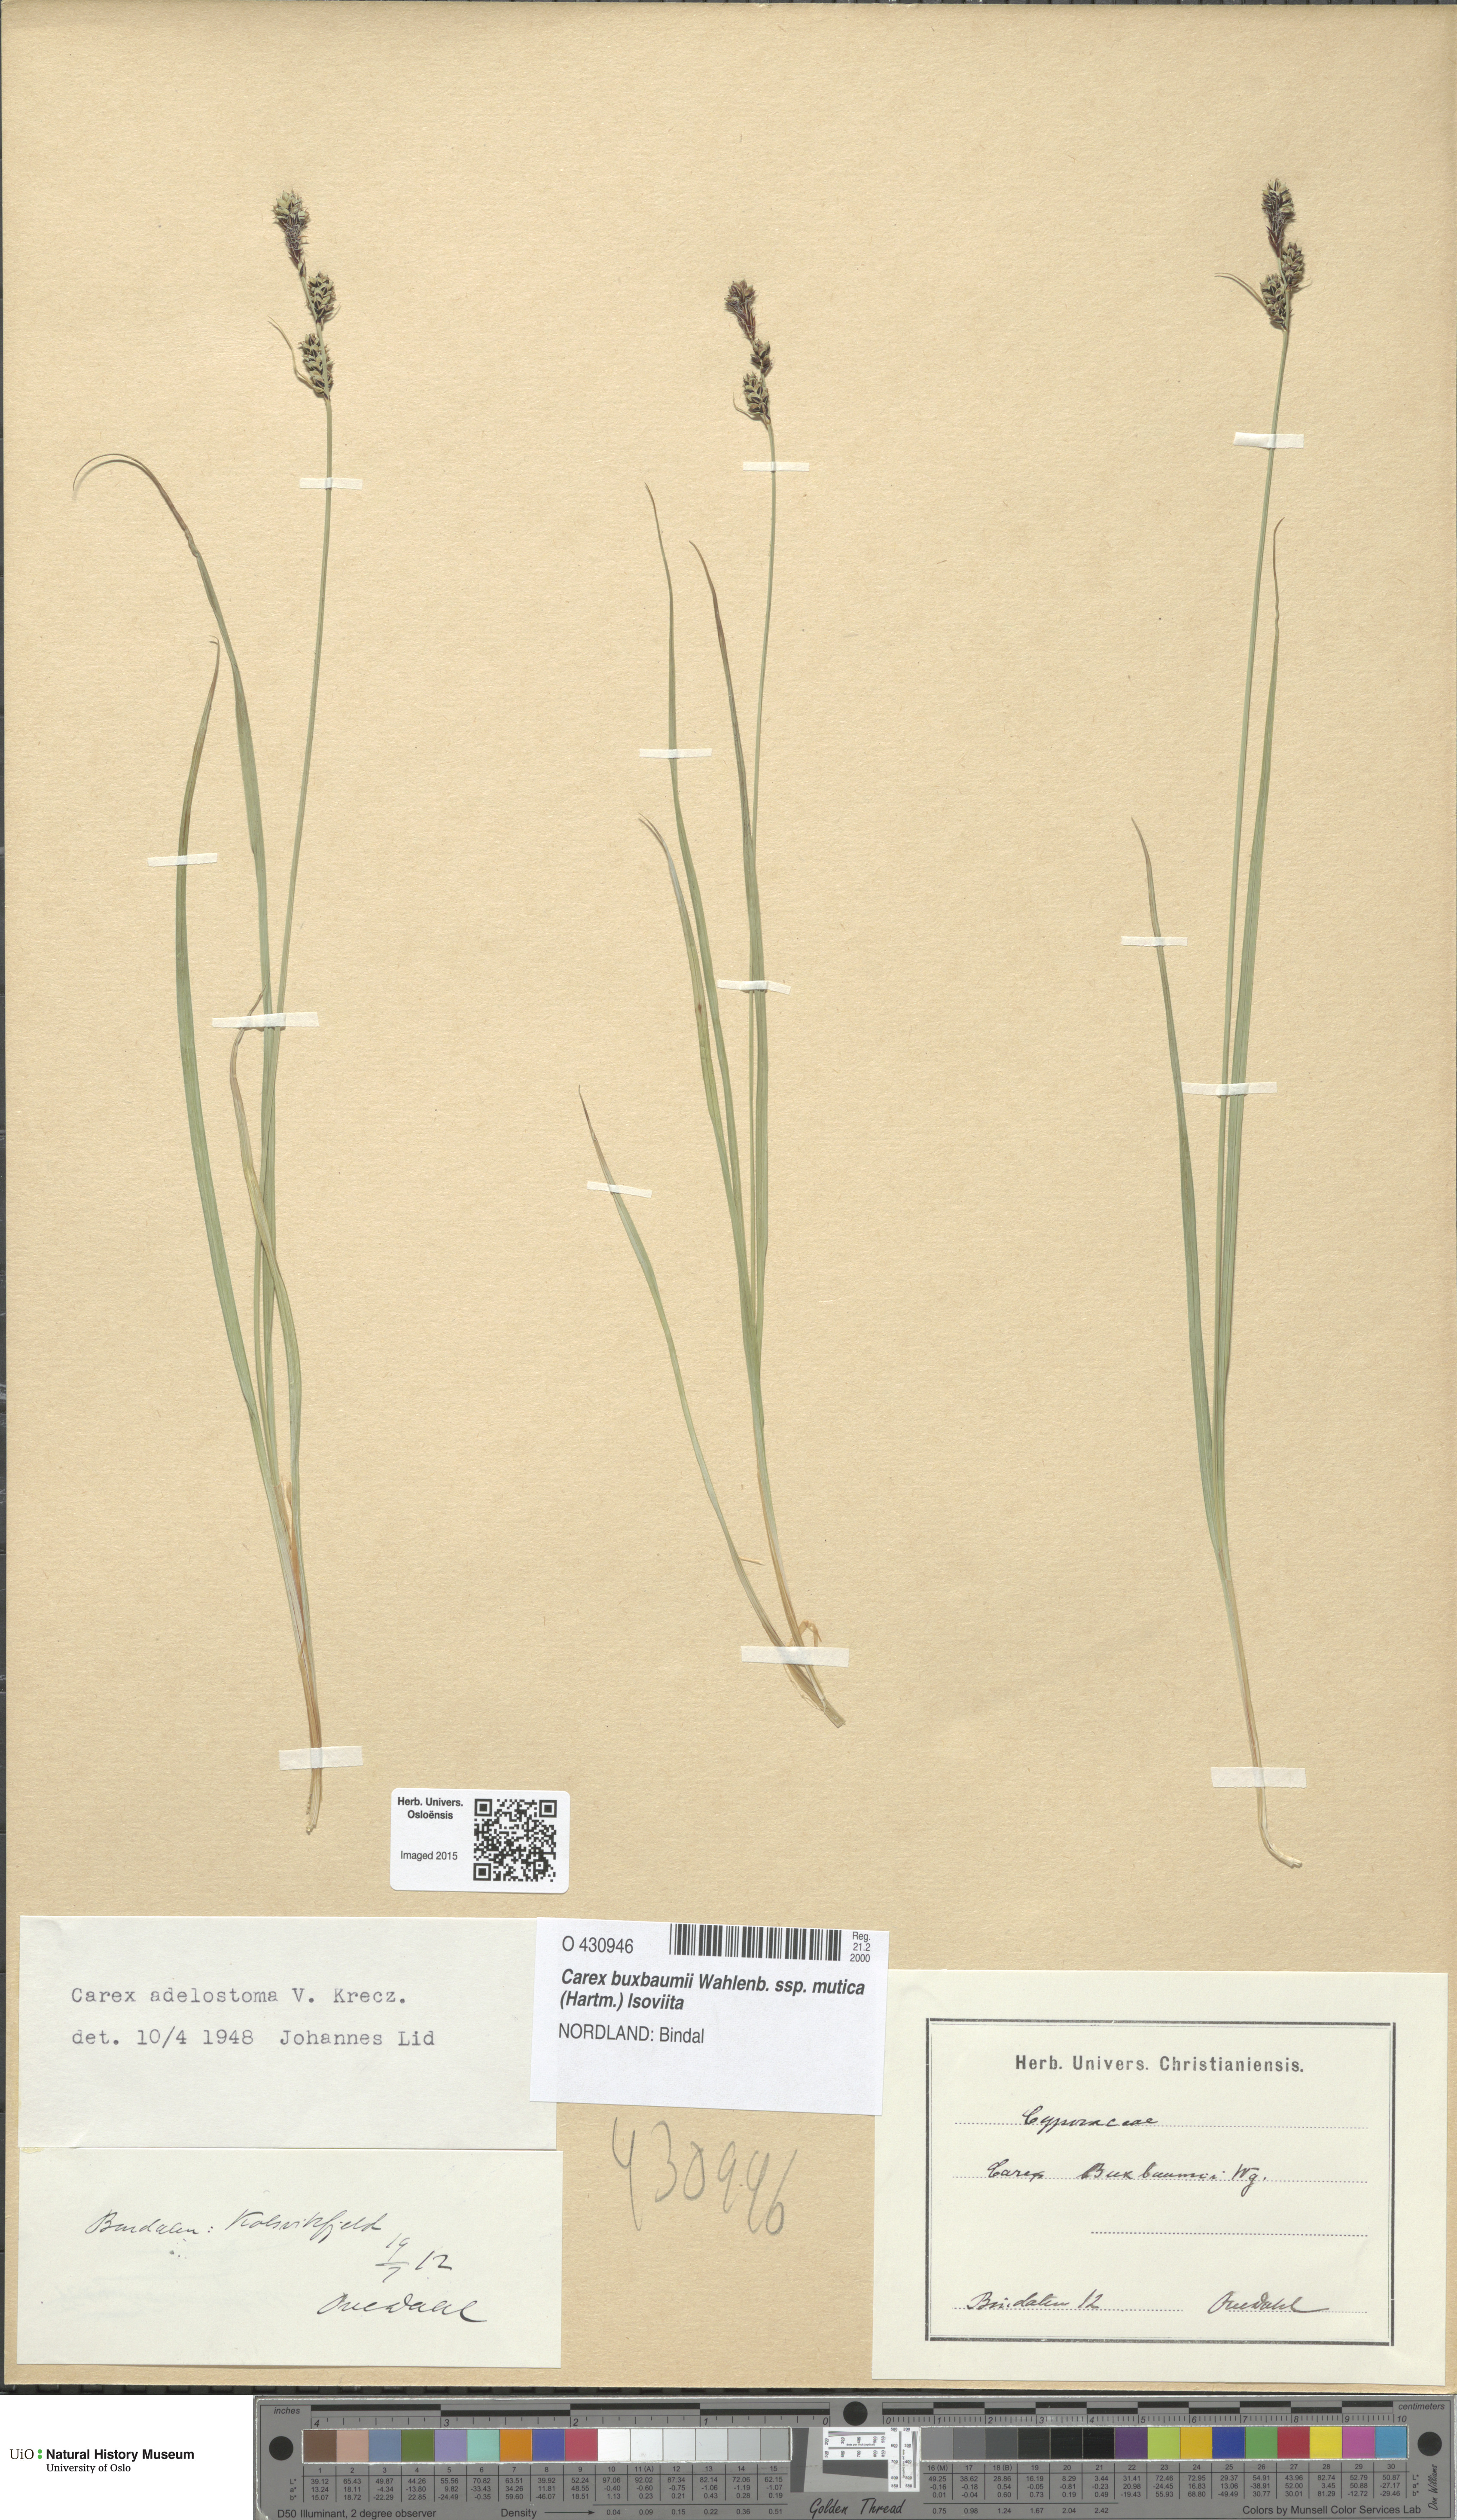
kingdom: Plantae
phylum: Tracheophyta
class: Liliopsida
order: Poales
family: Cyperaceae
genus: Carex
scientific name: Carex adelostoma
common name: Circumpolar sedge
